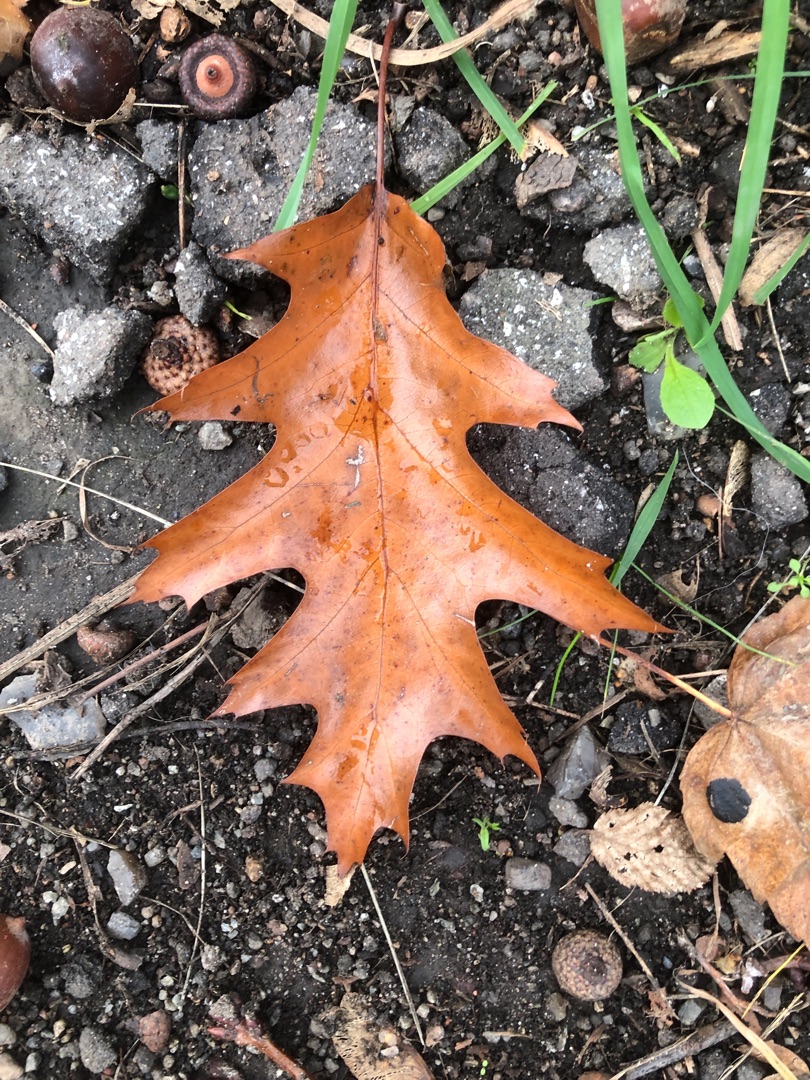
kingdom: Plantae
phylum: Tracheophyta
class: Magnoliopsida
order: Fagales
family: Fagaceae
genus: Quercus
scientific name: Quercus rubra
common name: Rød-eg
